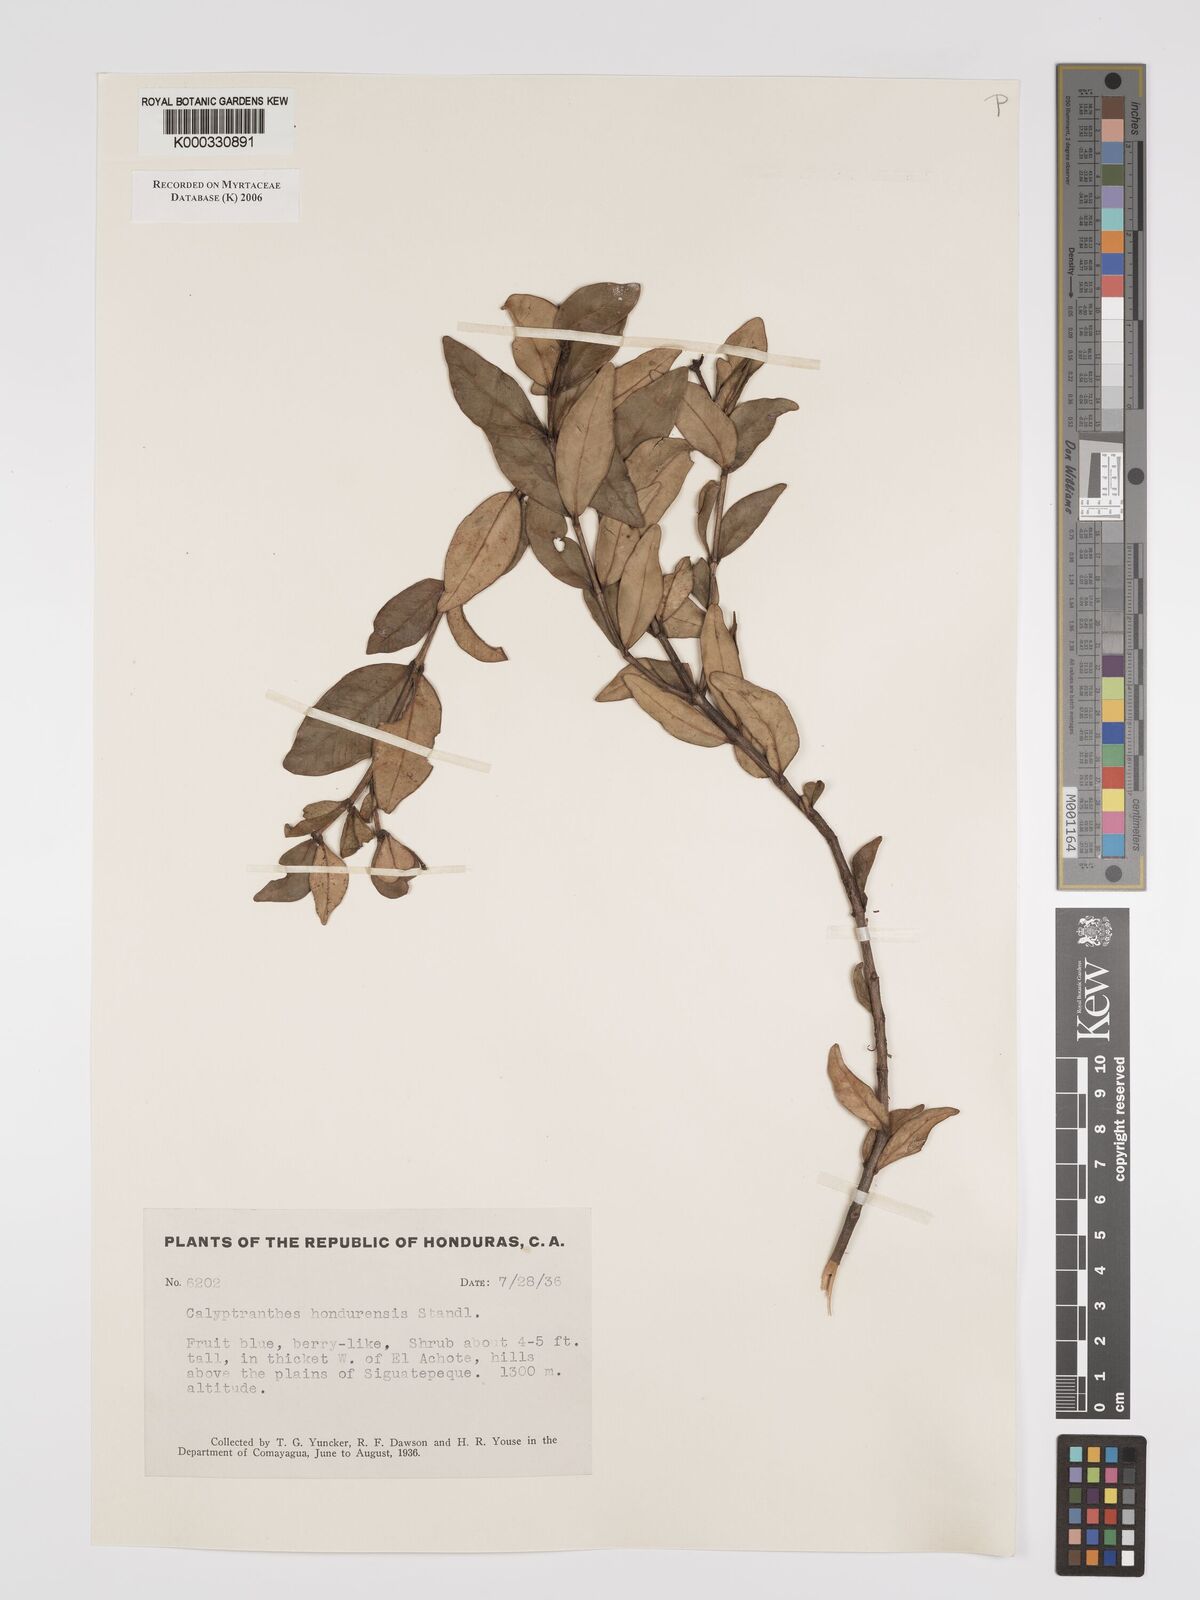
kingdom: Plantae
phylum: Tracheophyta
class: Magnoliopsida
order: Myrtales
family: Myrtaceae
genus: Myrcia
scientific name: Myrcia hondurensis
